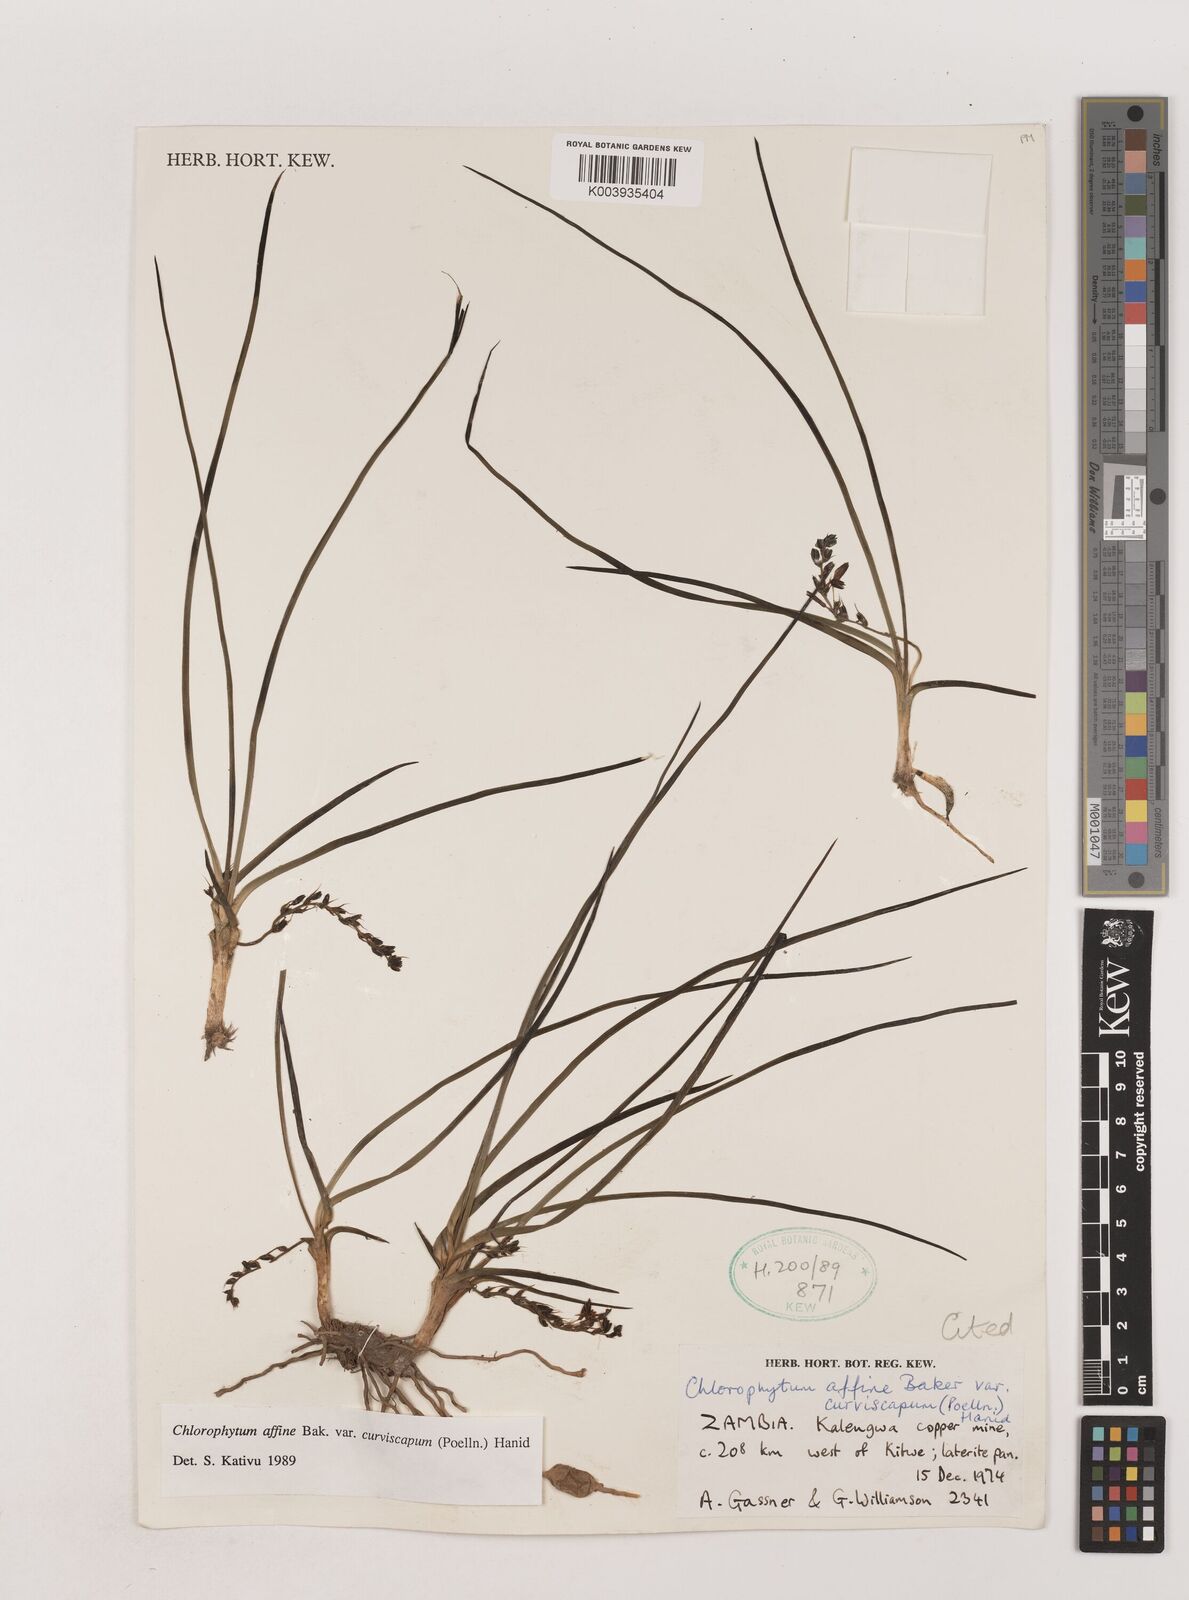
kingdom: Plantae
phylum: Tracheophyta
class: Liliopsida
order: Asparagales
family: Asparagaceae
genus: Chlorophytum
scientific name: Chlorophytum tordense
